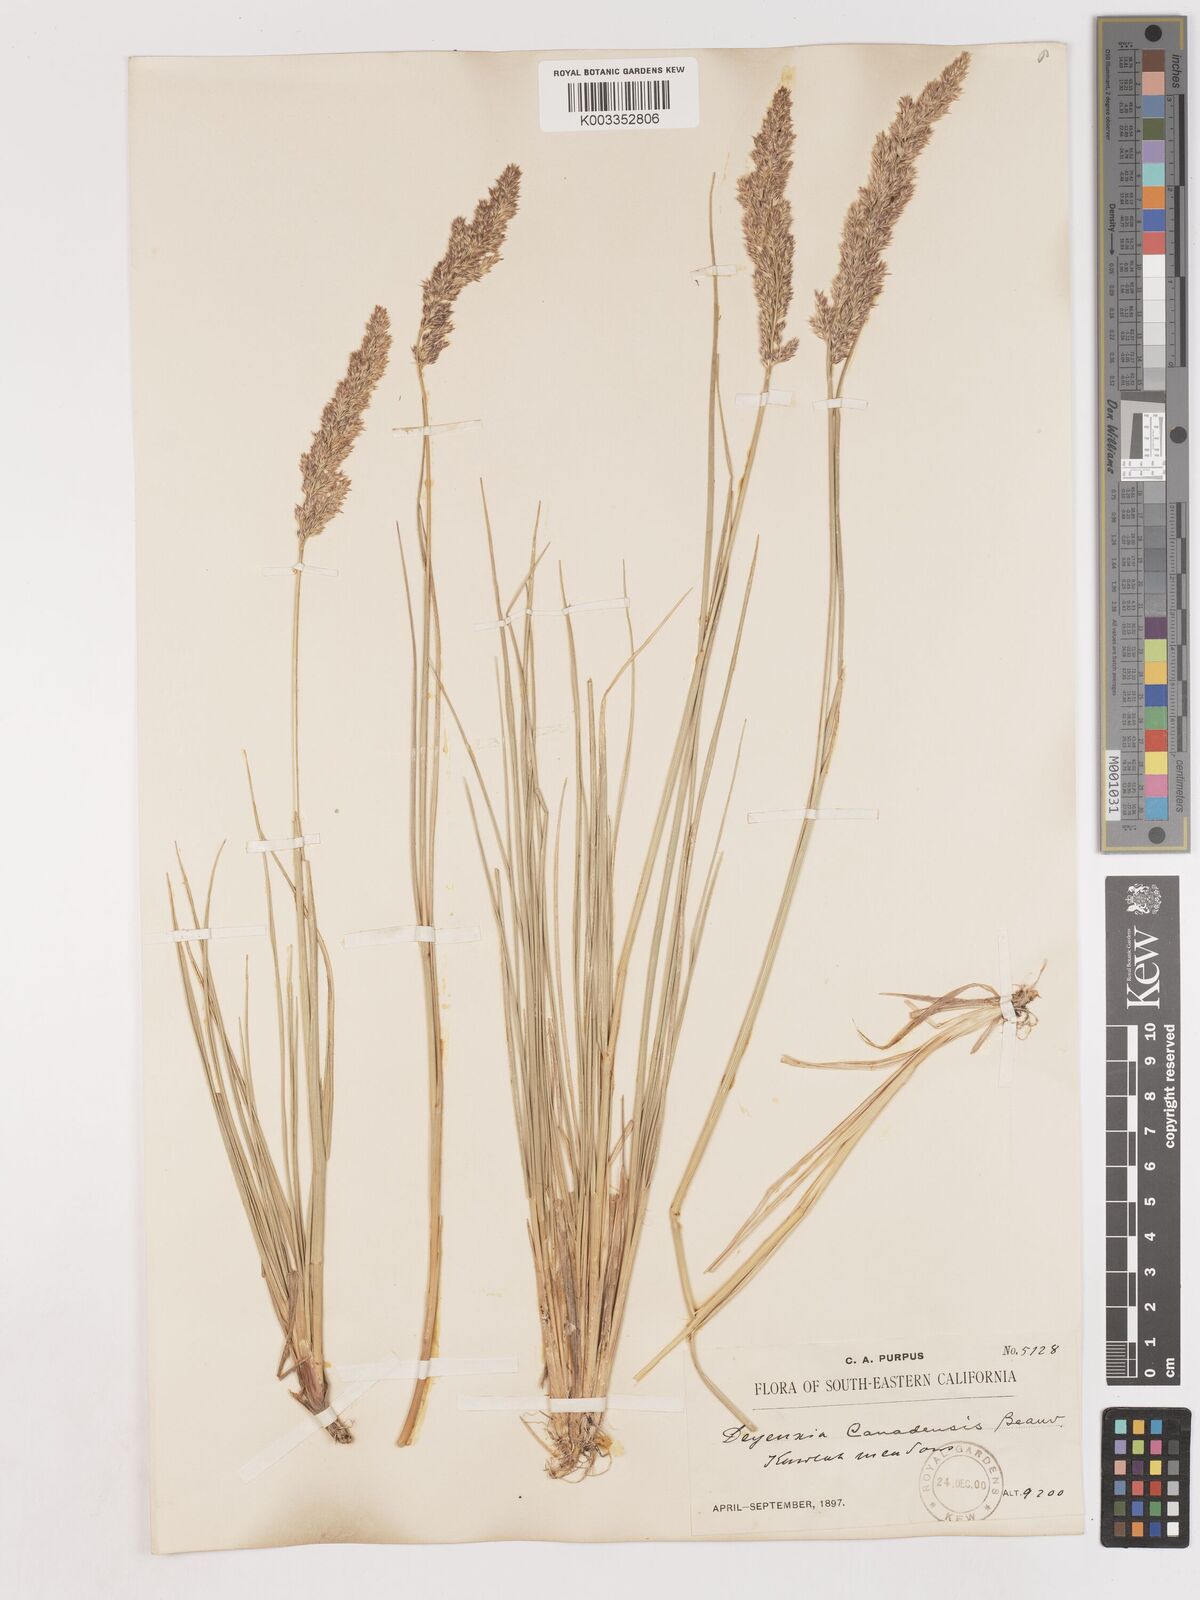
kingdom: Plantae
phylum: Tracheophyta
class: Liliopsida
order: Poales
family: Poaceae
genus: Calamagrostis
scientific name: Calamagrostis canadensis
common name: Canada bluejoint
